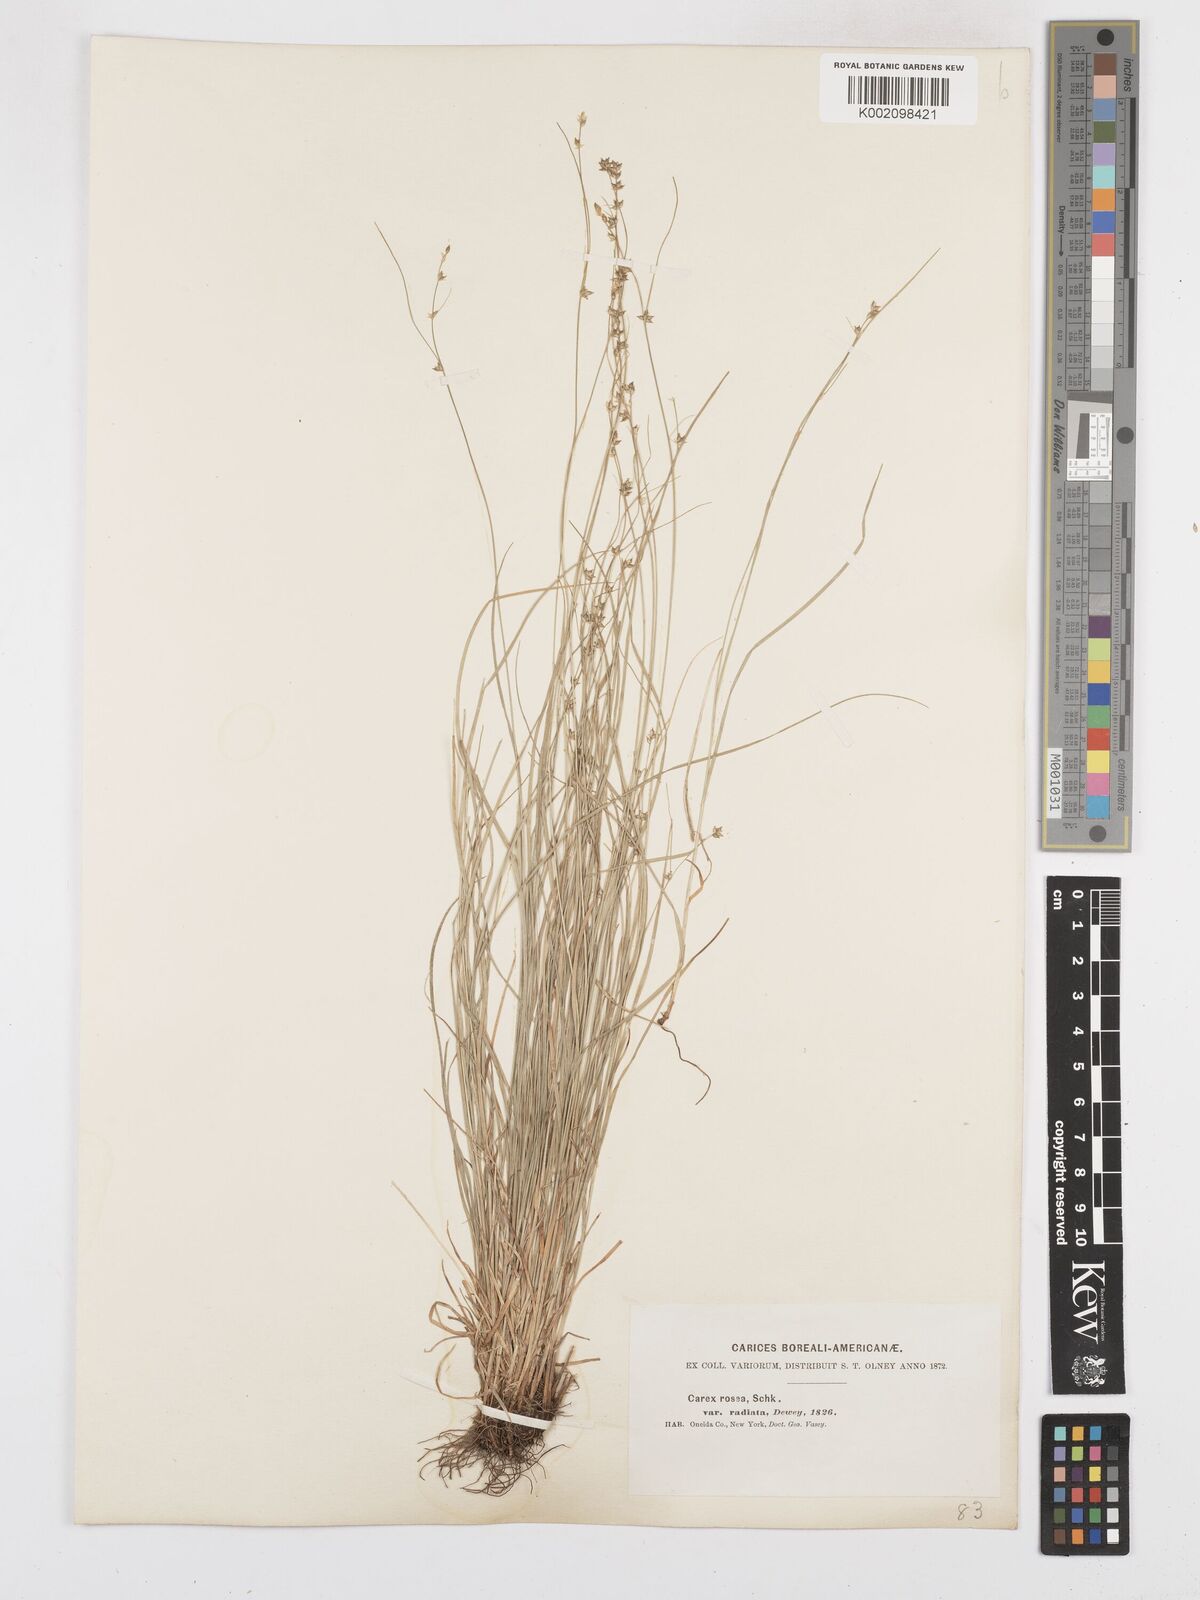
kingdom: Plantae
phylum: Tracheophyta
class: Liliopsida
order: Poales
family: Cyperaceae
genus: Carex
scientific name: Carex
